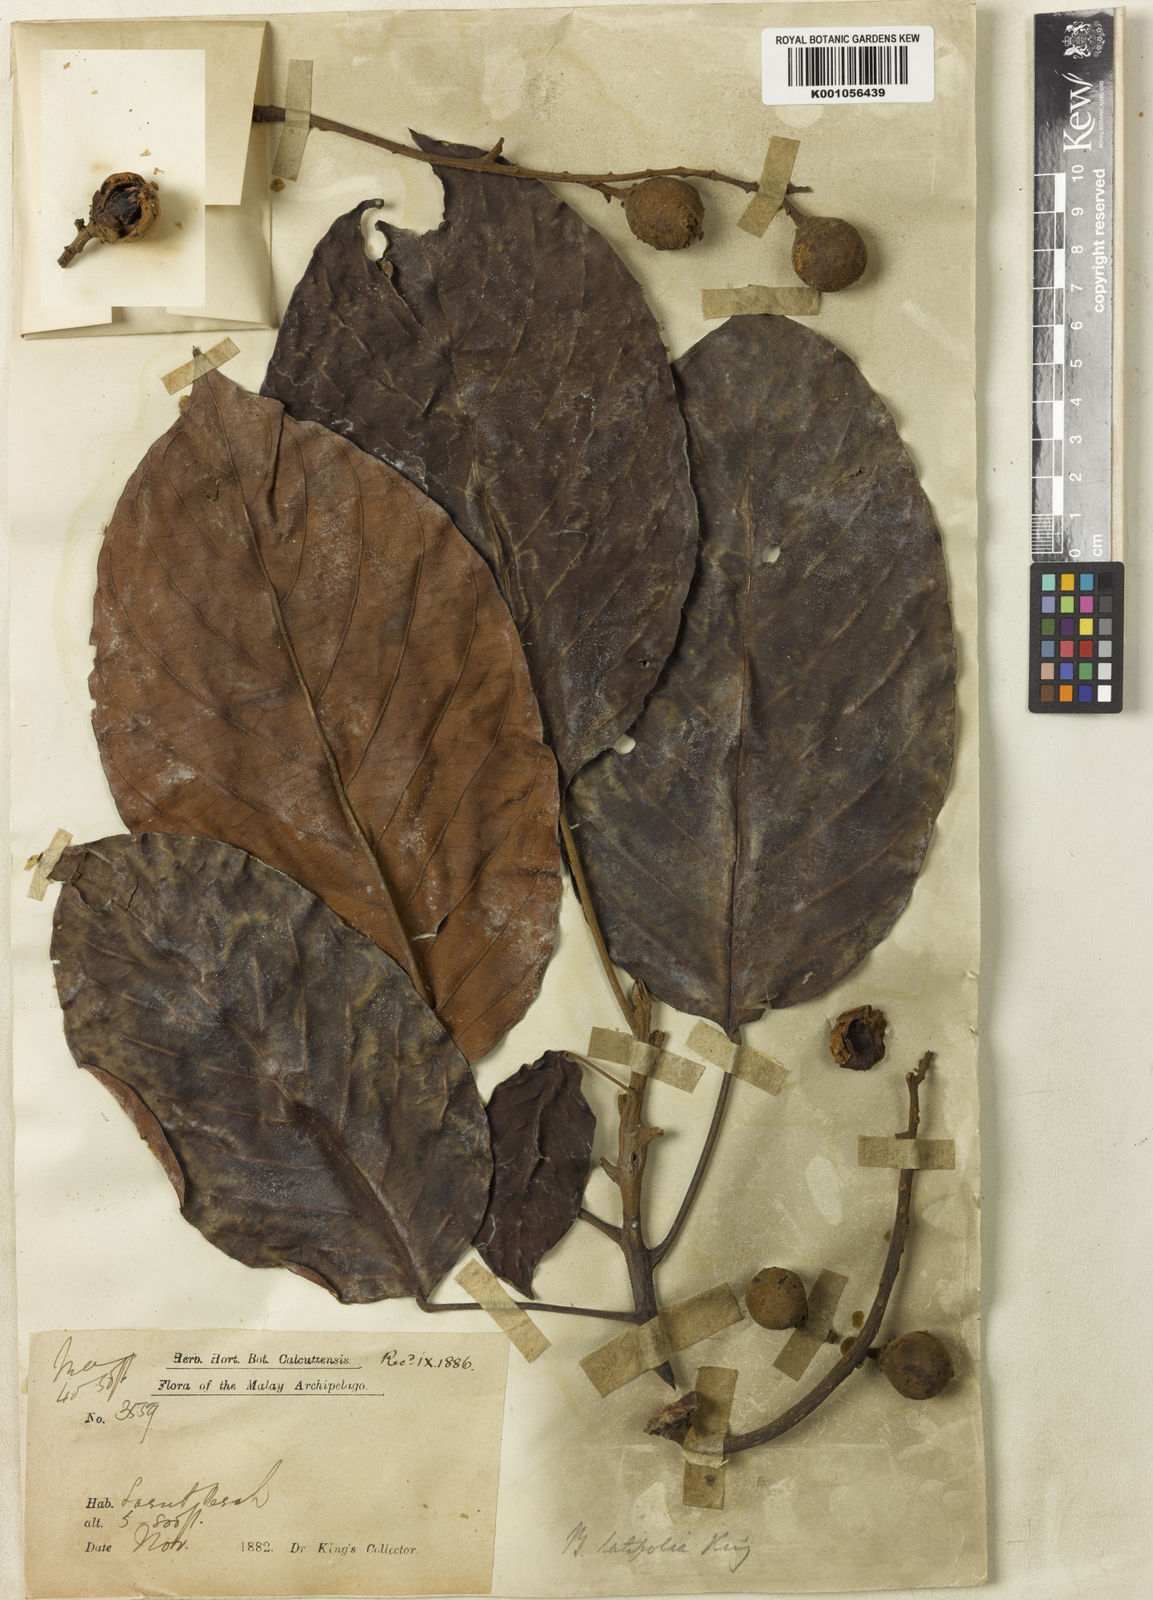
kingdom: Plantae
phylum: Tracheophyta
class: Magnoliopsida
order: Malpighiales
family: Phyllanthaceae
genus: Baccaurea
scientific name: Baccaurea pubera
